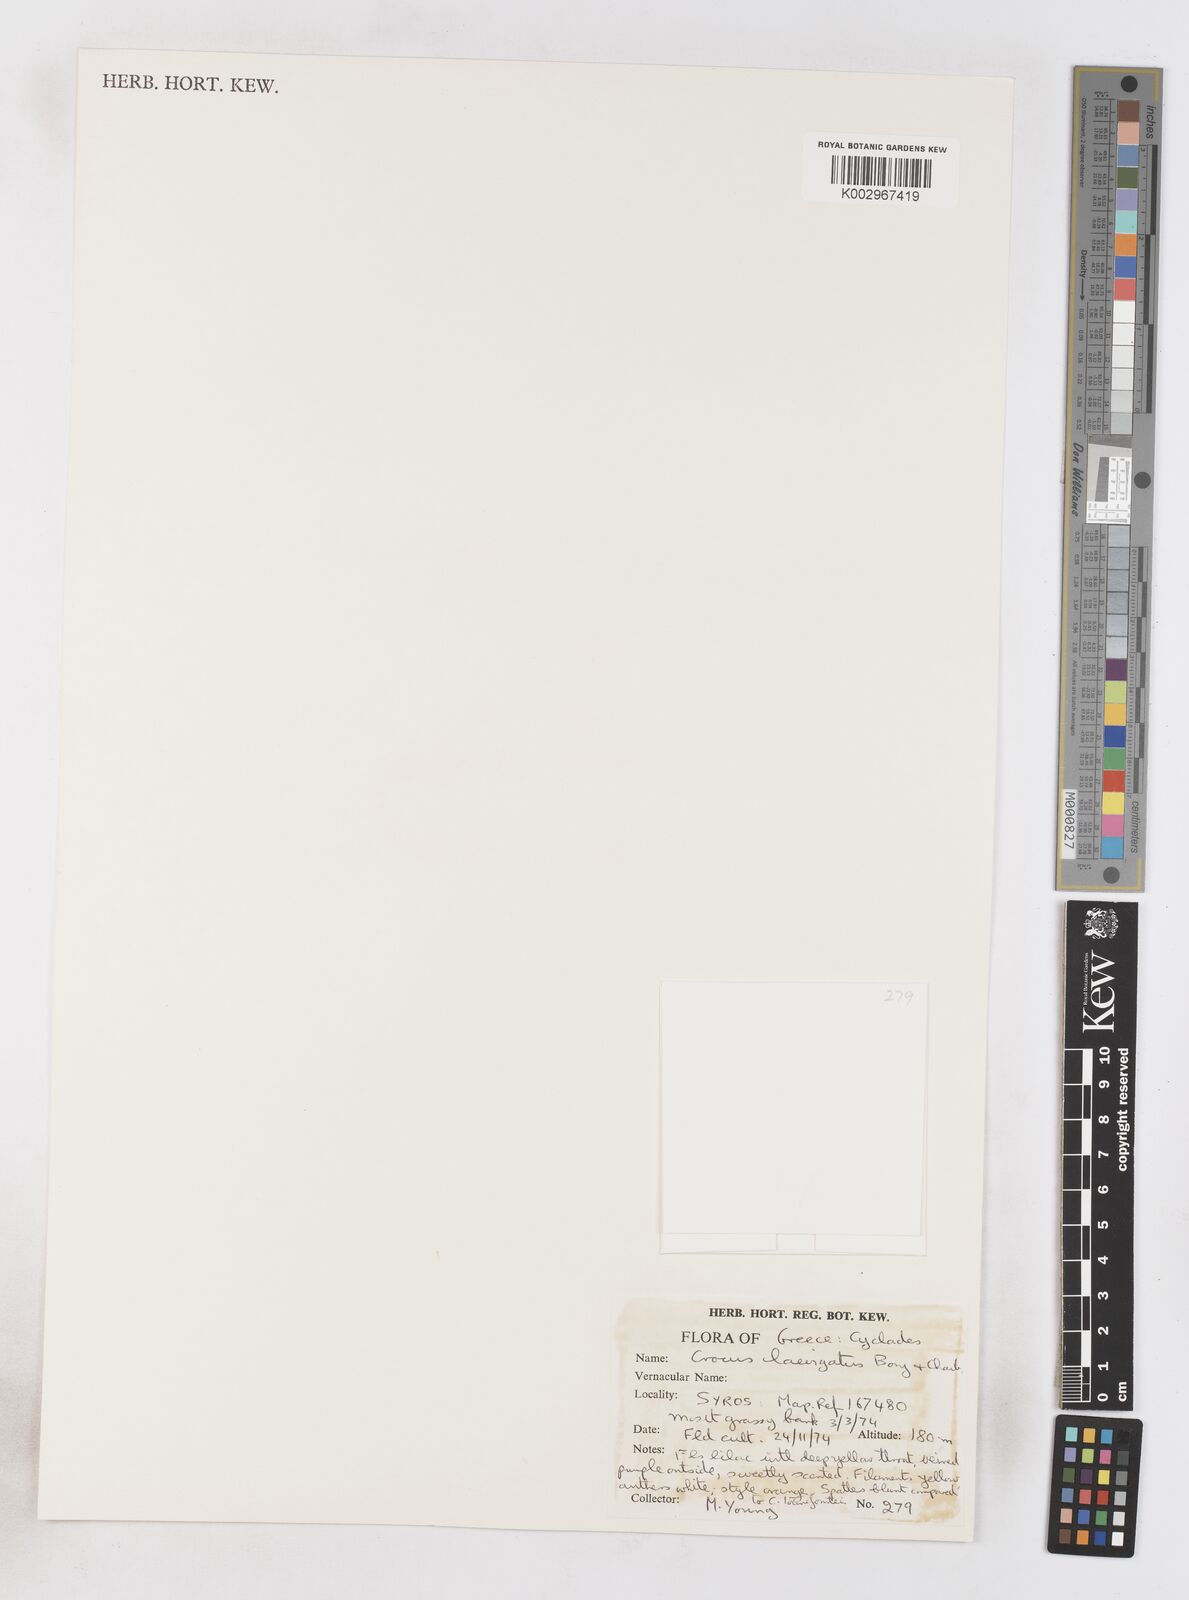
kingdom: Plantae
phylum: Tracheophyta
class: Liliopsida
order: Asparagales
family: Iridaceae
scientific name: Iridaceae
